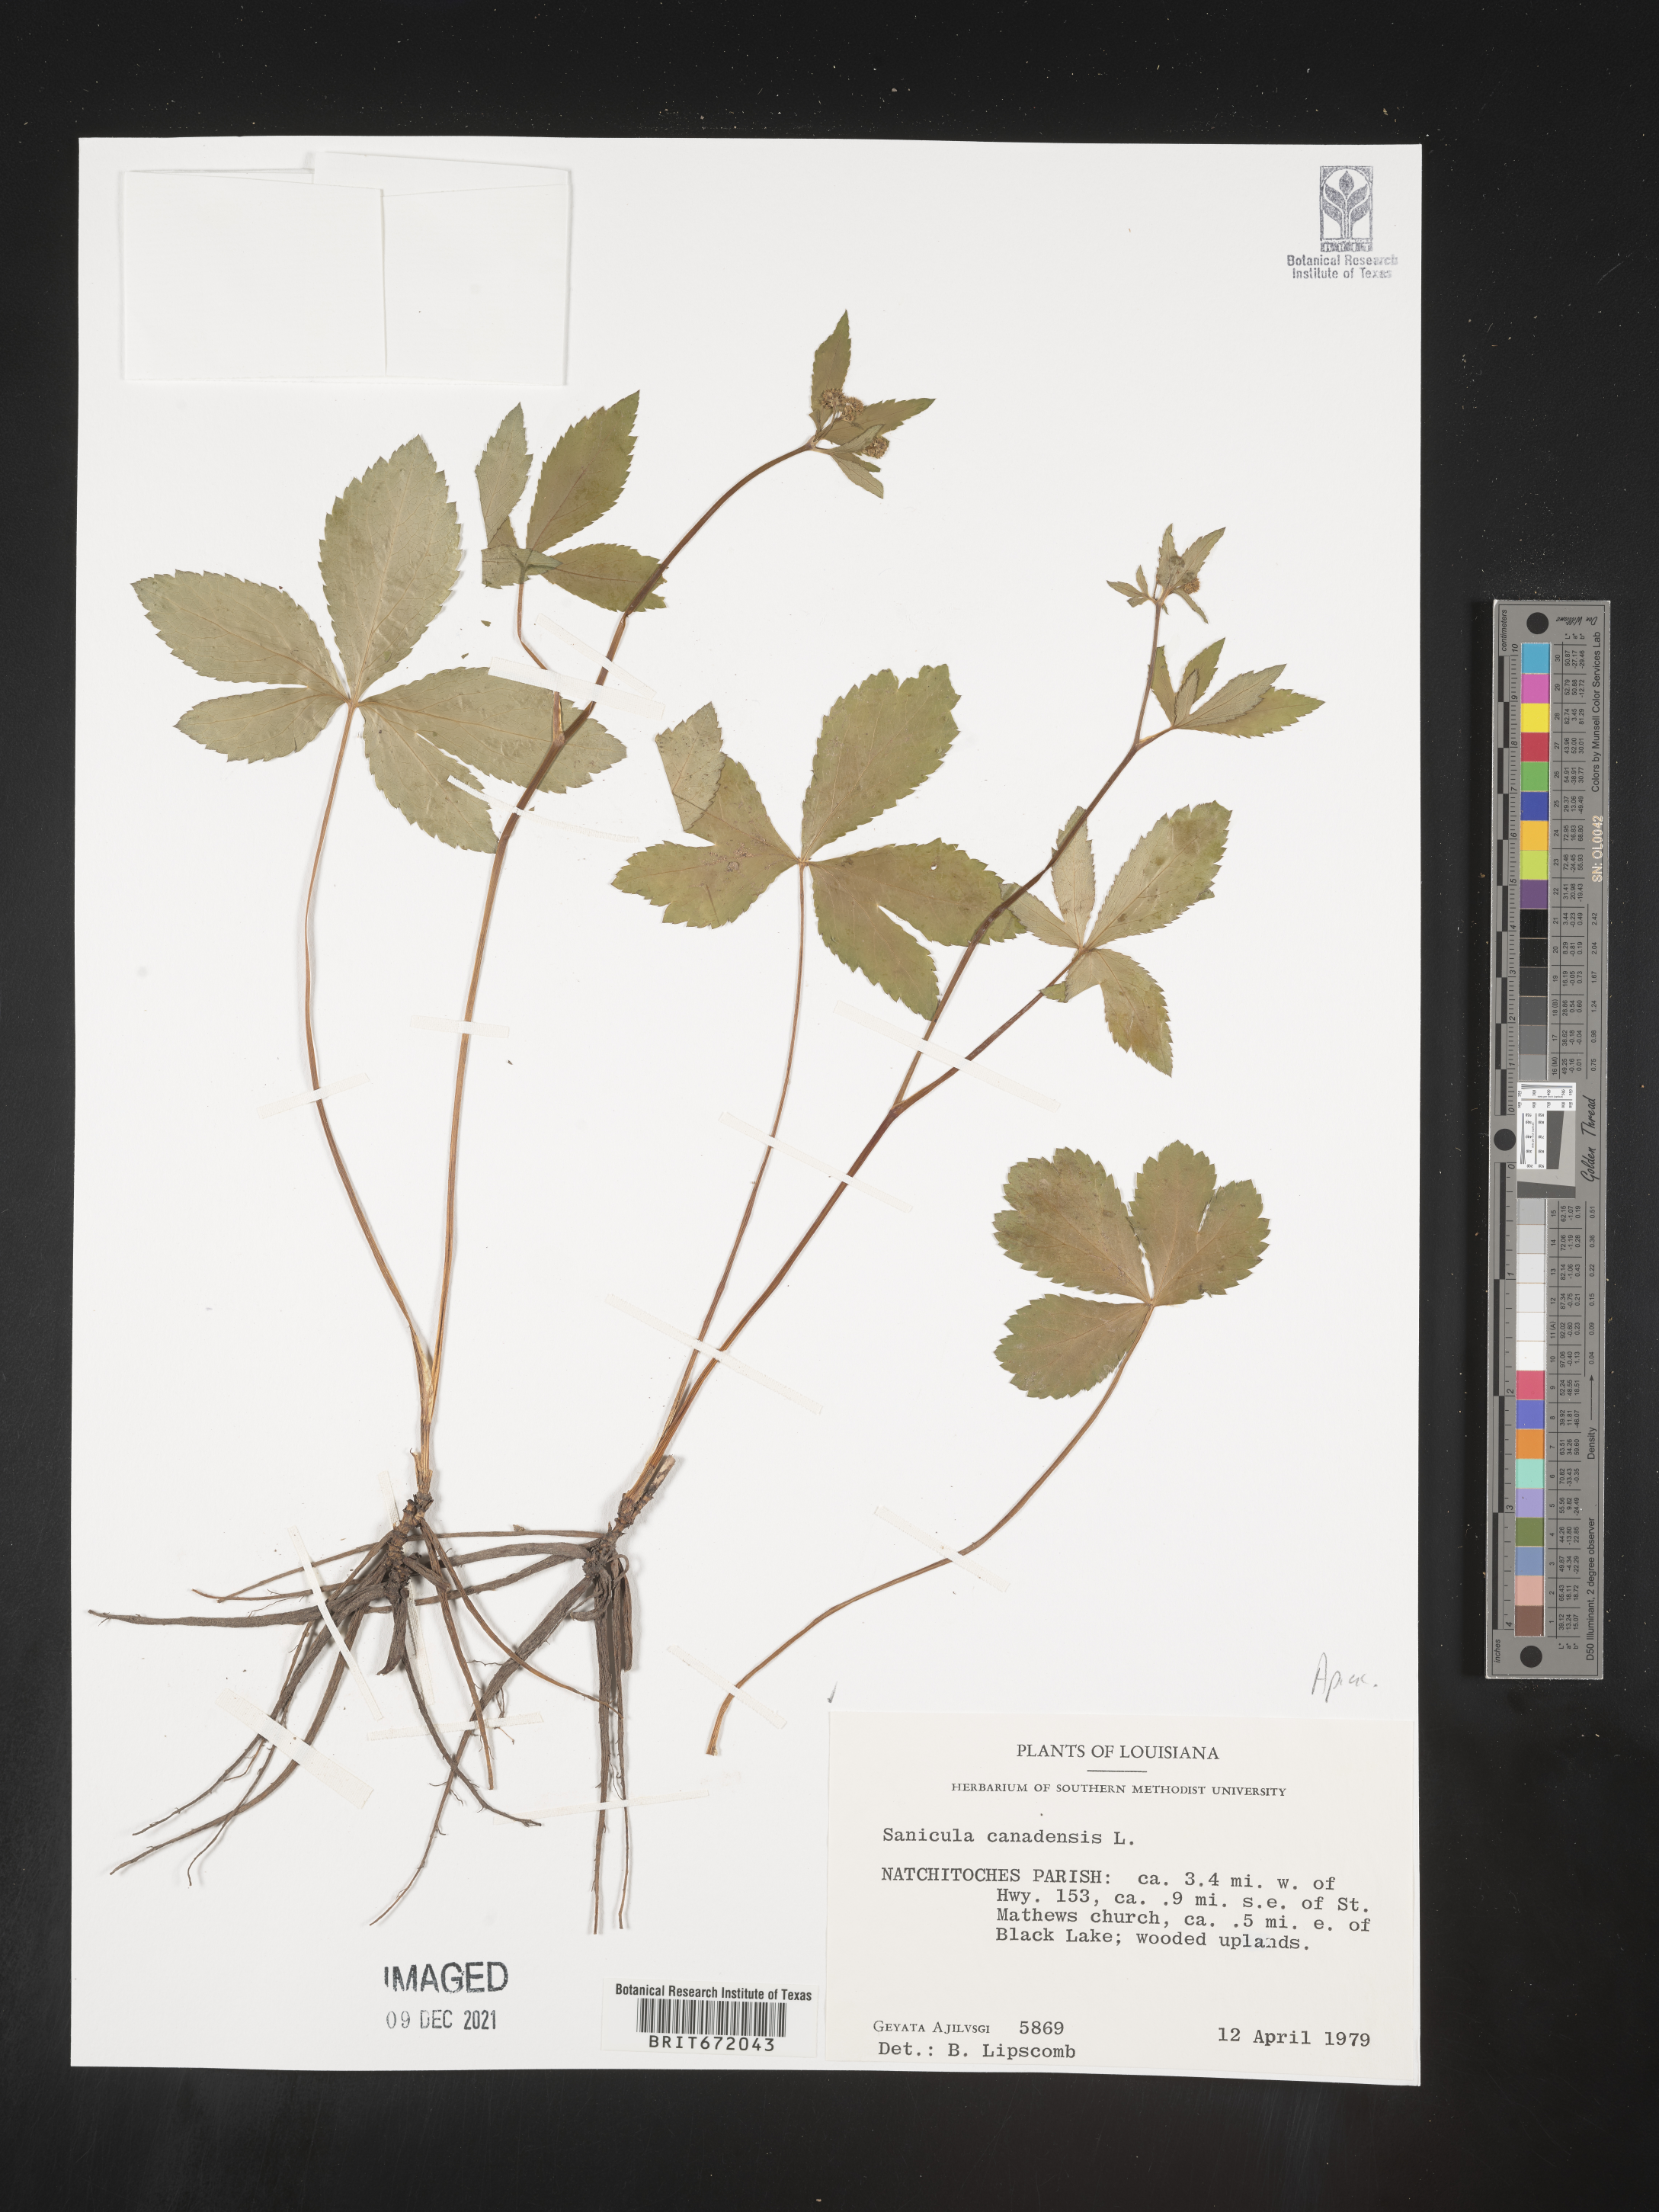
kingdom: Plantae
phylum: Tracheophyta
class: Magnoliopsida
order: Apiales
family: Apiaceae
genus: Sanicula
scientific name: Sanicula canadensis
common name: Canada sanicle
